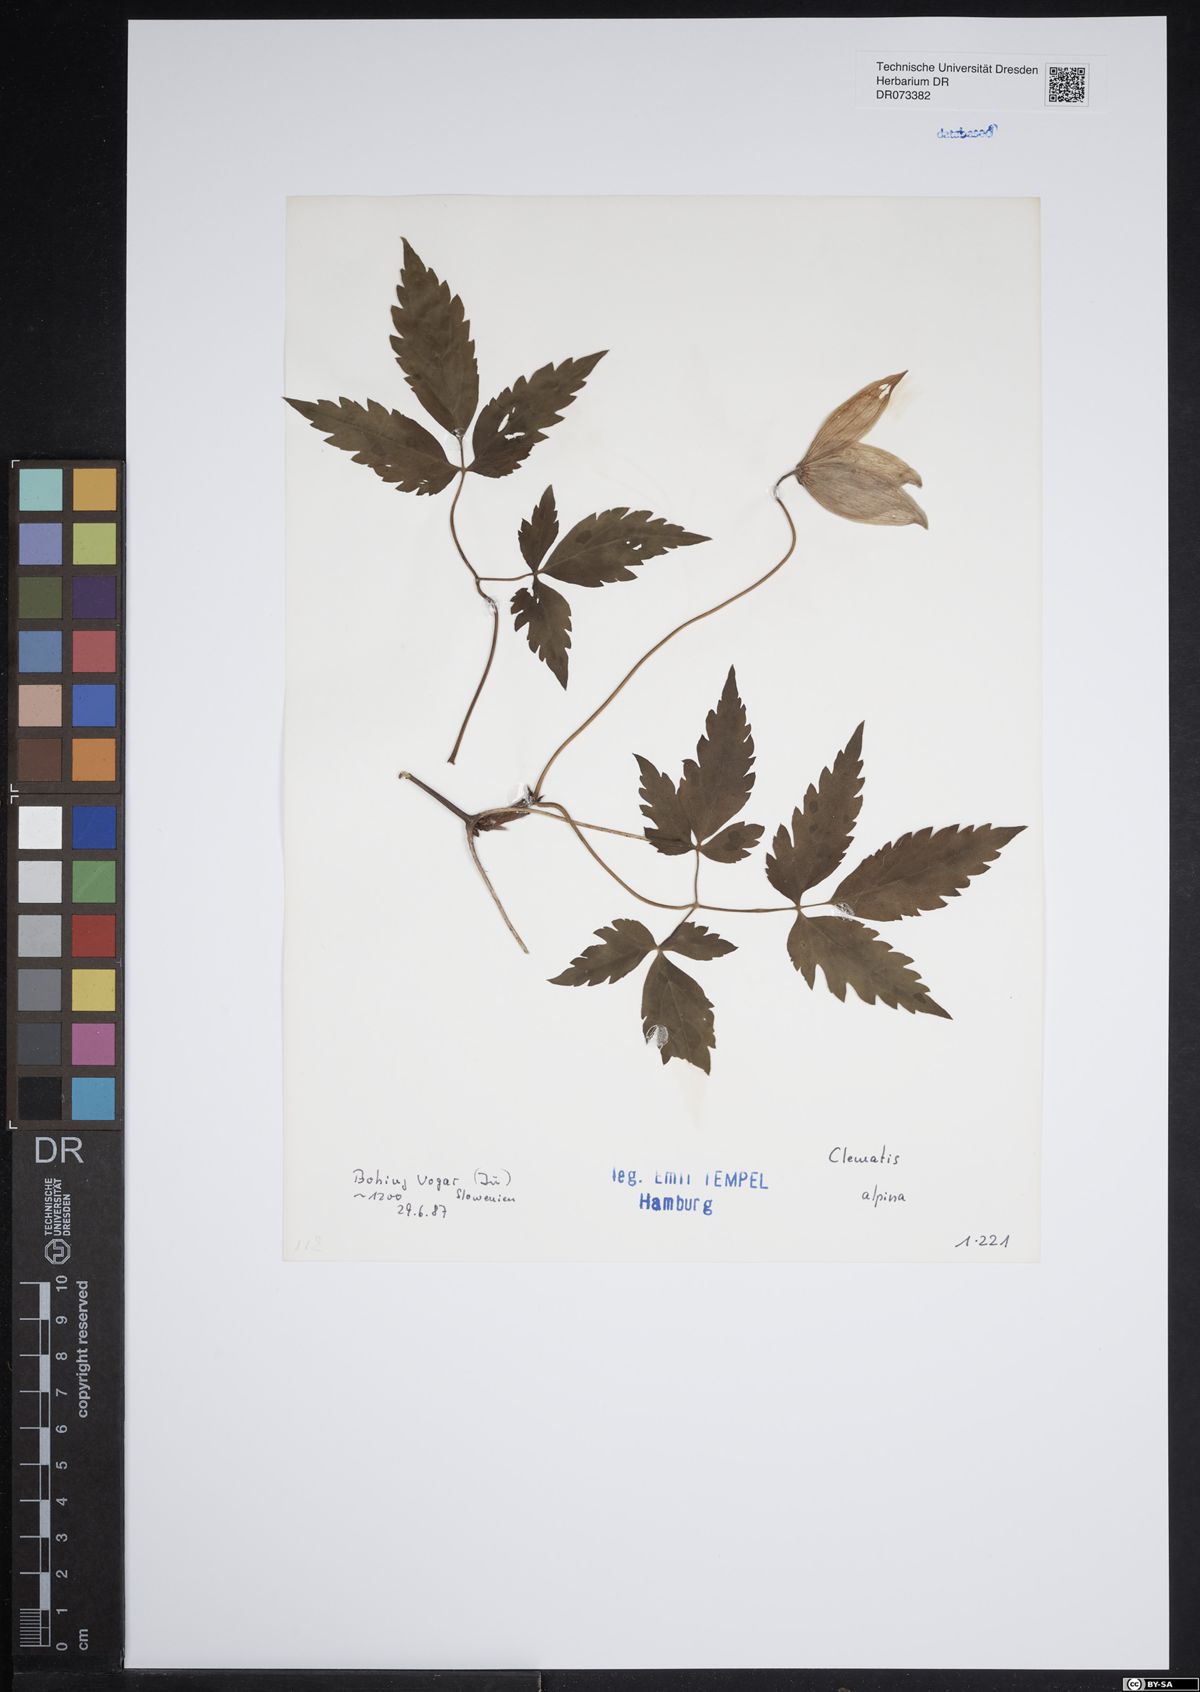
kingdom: Plantae
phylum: Tracheophyta
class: Magnoliopsida
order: Ranunculales
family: Ranunculaceae
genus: Clematis
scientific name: Clematis alpina
